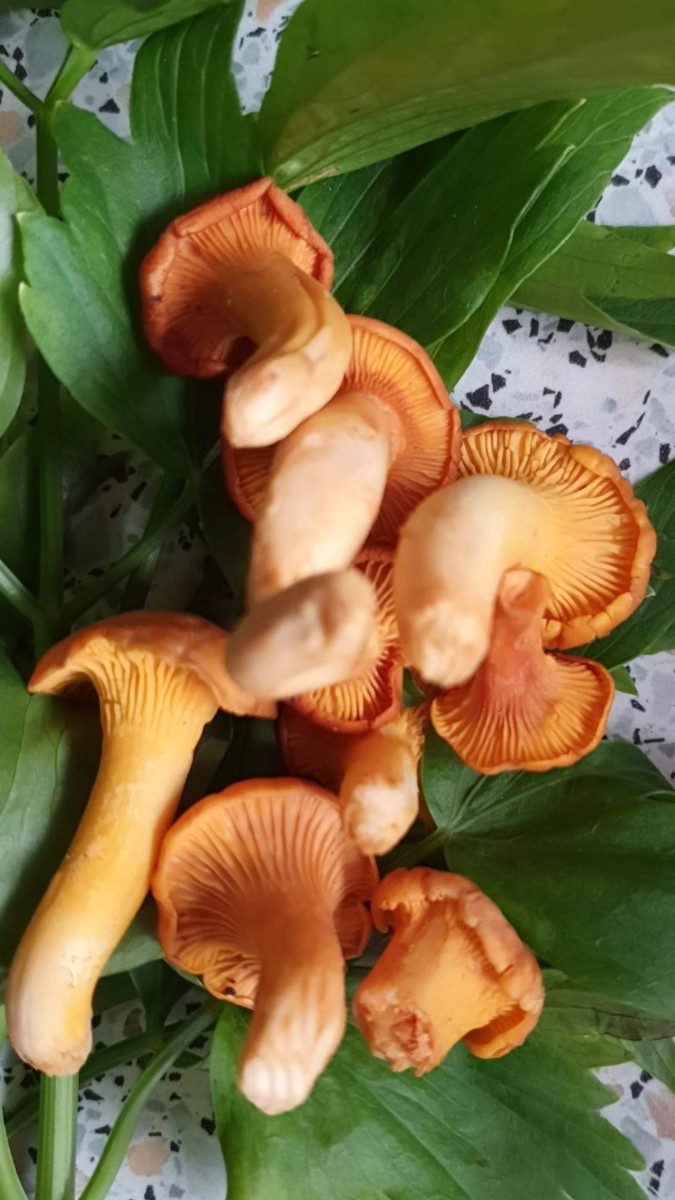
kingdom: Fungi
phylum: Basidiomycota
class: Agaricomycetes
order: Cantharellales
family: Hydnaceae
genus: Cantharellus
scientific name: Cantharellus cibarius
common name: almindelig kantarel
